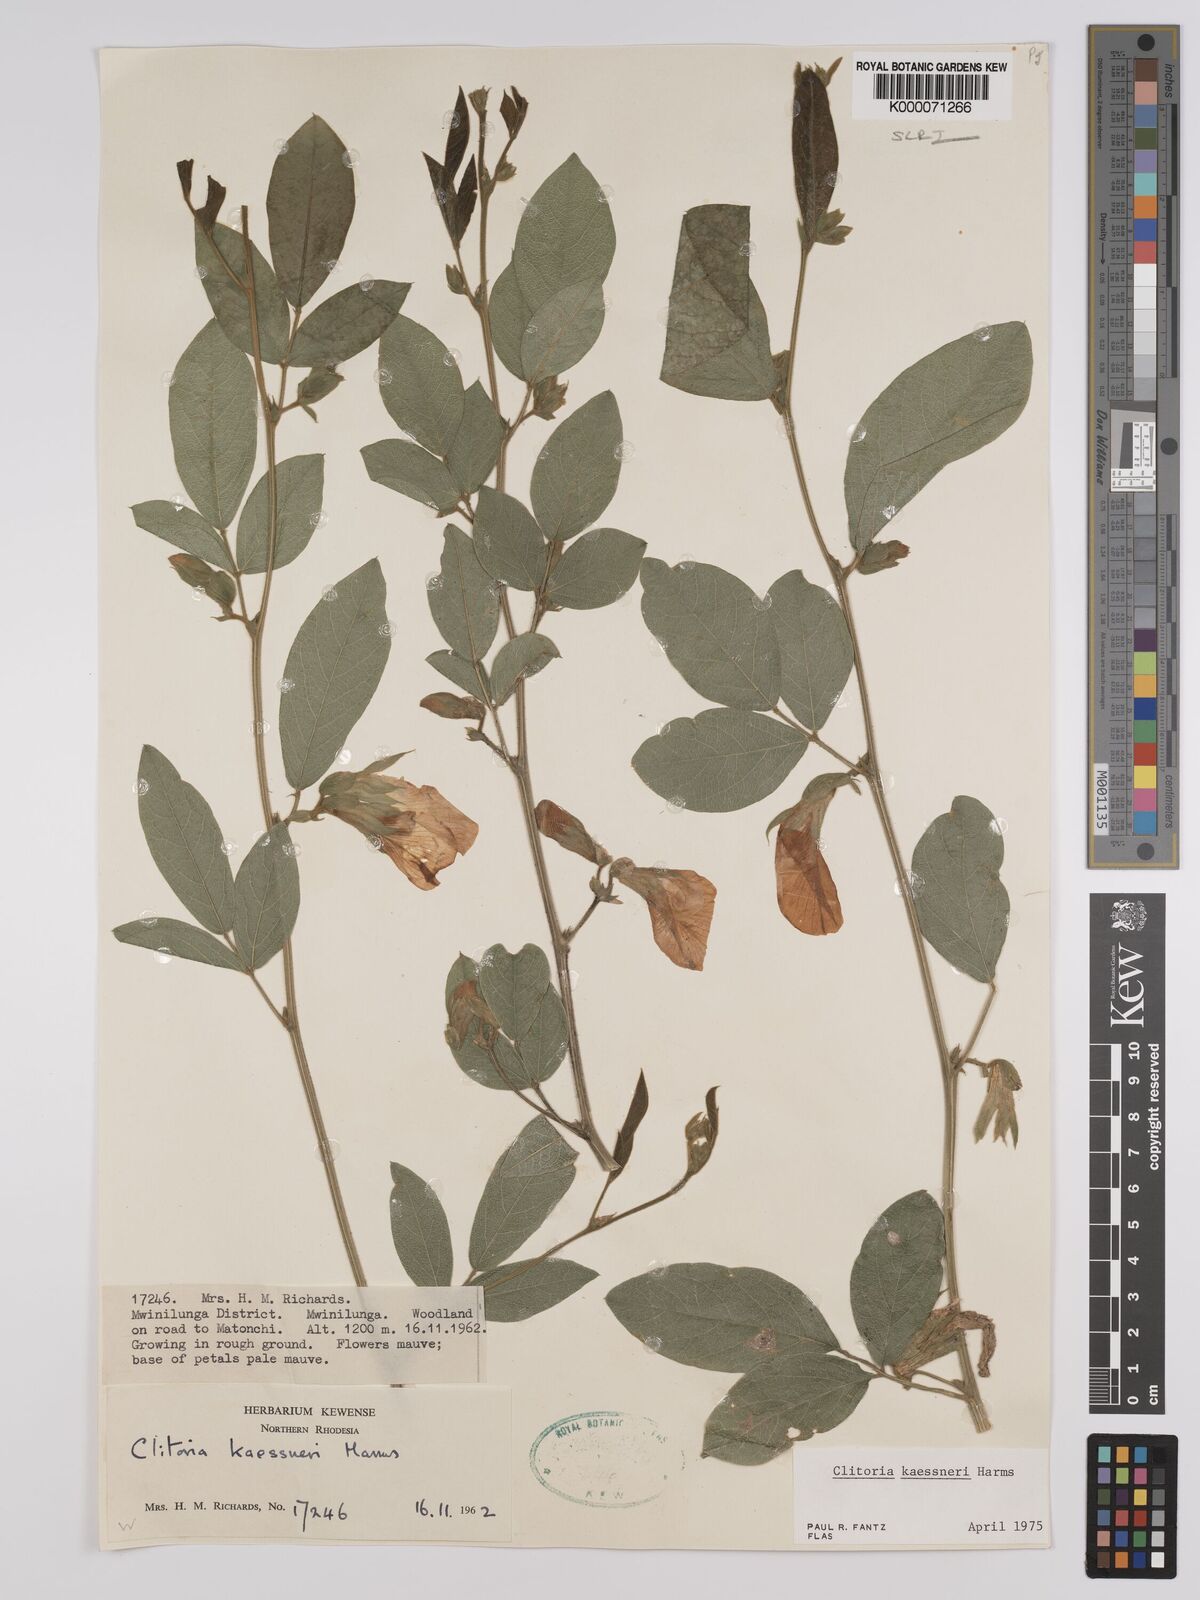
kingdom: Plantae
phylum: Tracheophyta
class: Magnoliopsida
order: Fabales
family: Fabaceae
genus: Clitoria
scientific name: Clitoria kaessneri
